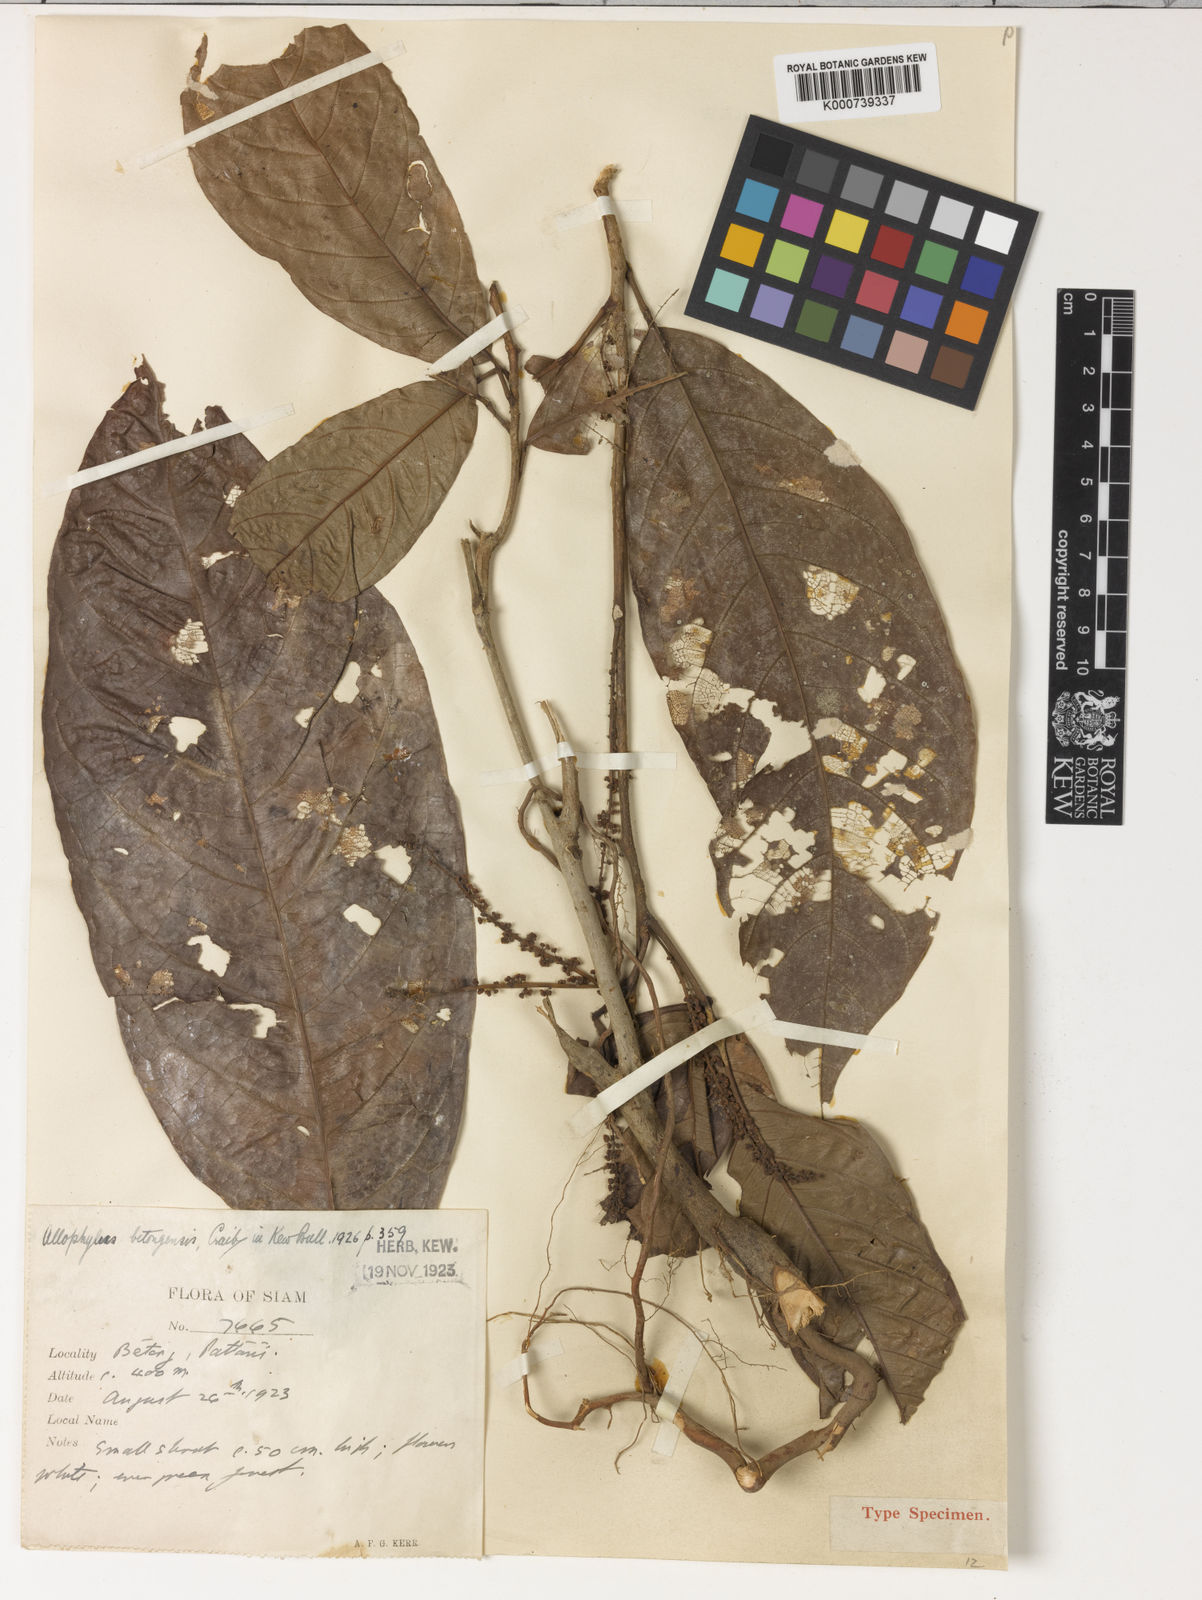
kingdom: Plantae
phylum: Tracheophyta
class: Magnoliopsida
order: Sapindales
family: Sapindaceae
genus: Allophylus
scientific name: Allophylus betongensis
